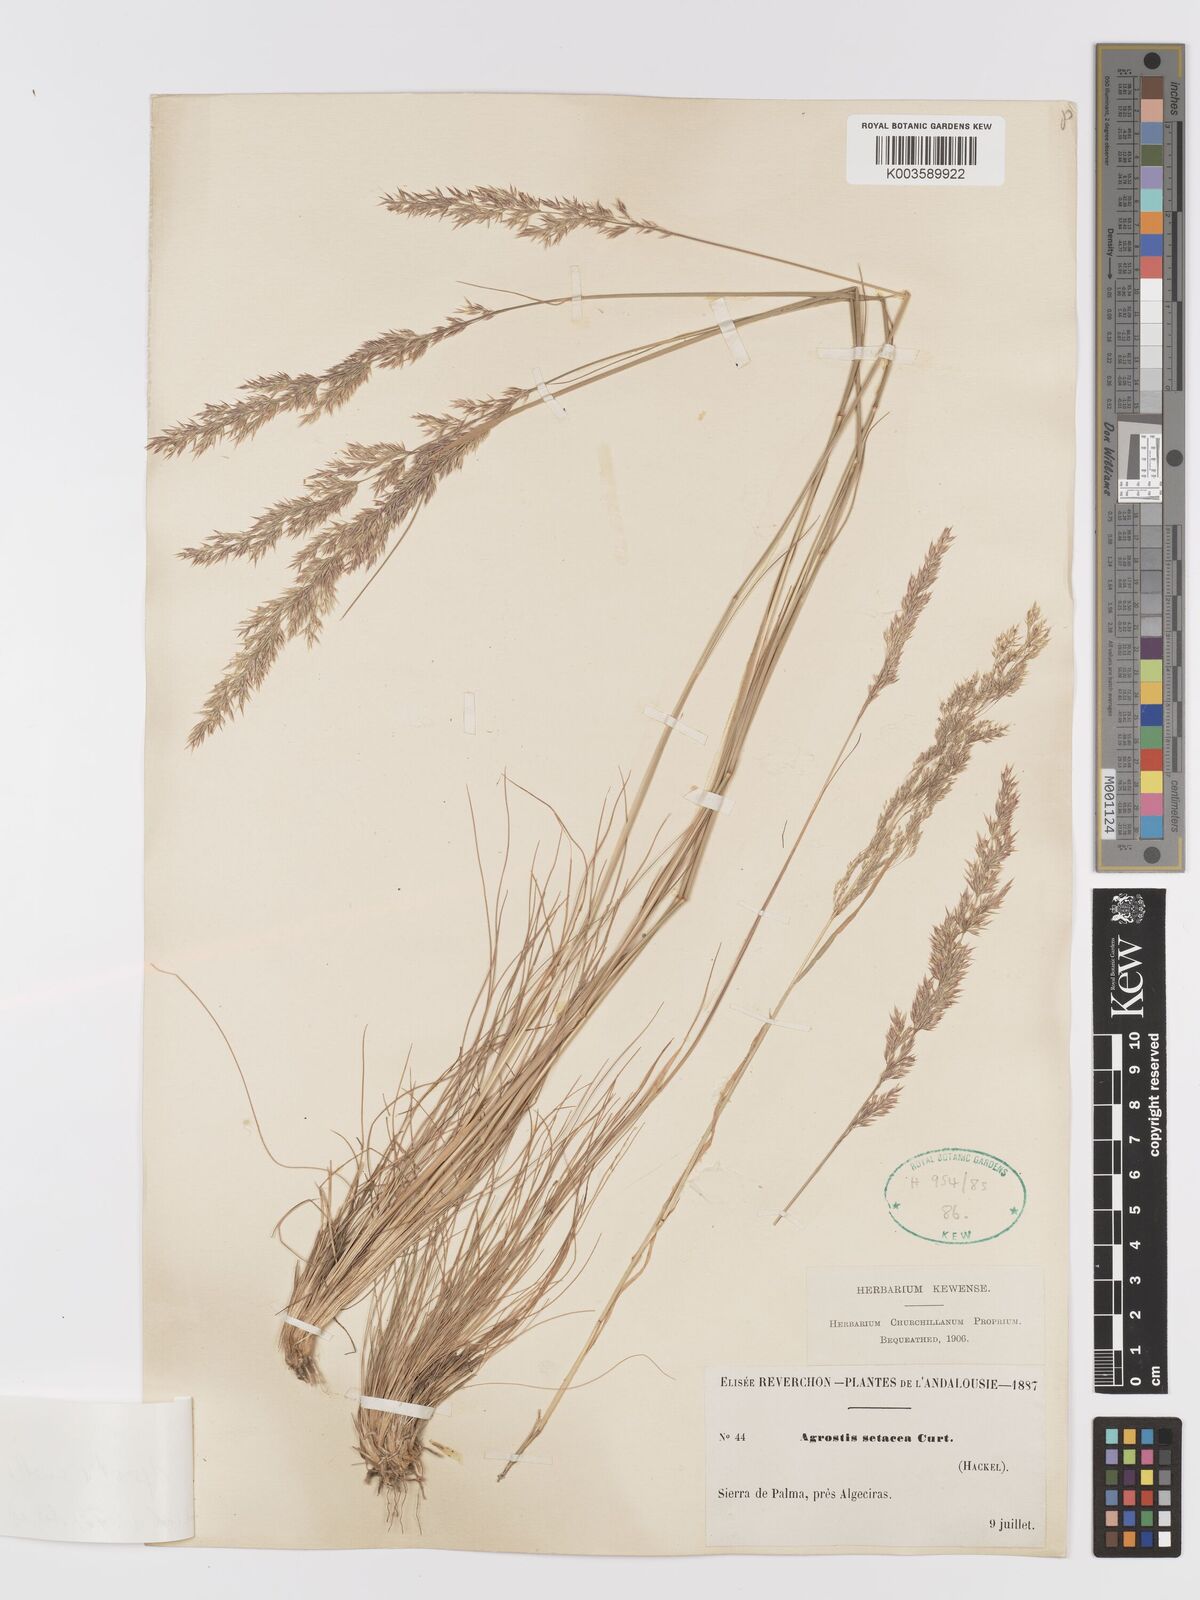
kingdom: Plantae
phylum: Tracheophyta
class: Liliopsida
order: Poales
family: Poaceae
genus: Alpagrostis
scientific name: Alpagrostis setacea
